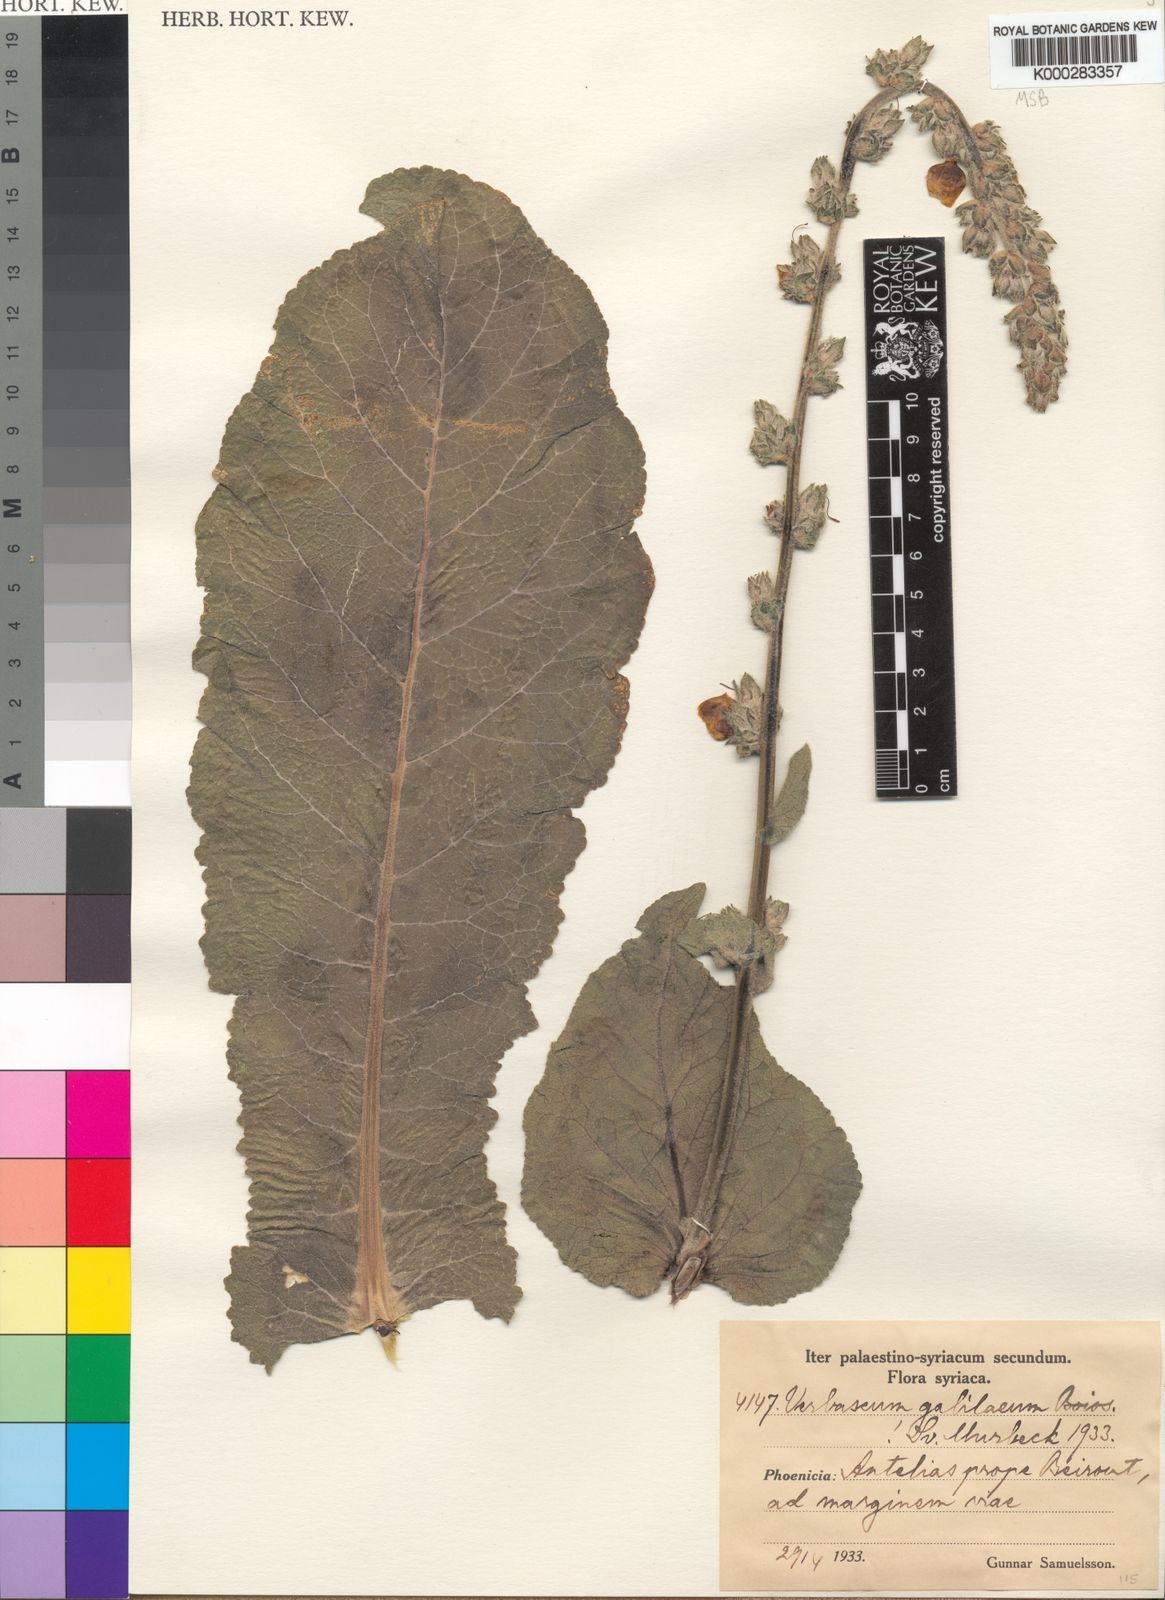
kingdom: Plantae
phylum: Tracheophyta
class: Magnoliopsida
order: Lamiales
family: Scrophulariaceae
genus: Verbascum
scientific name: Verbascum galilaeum
